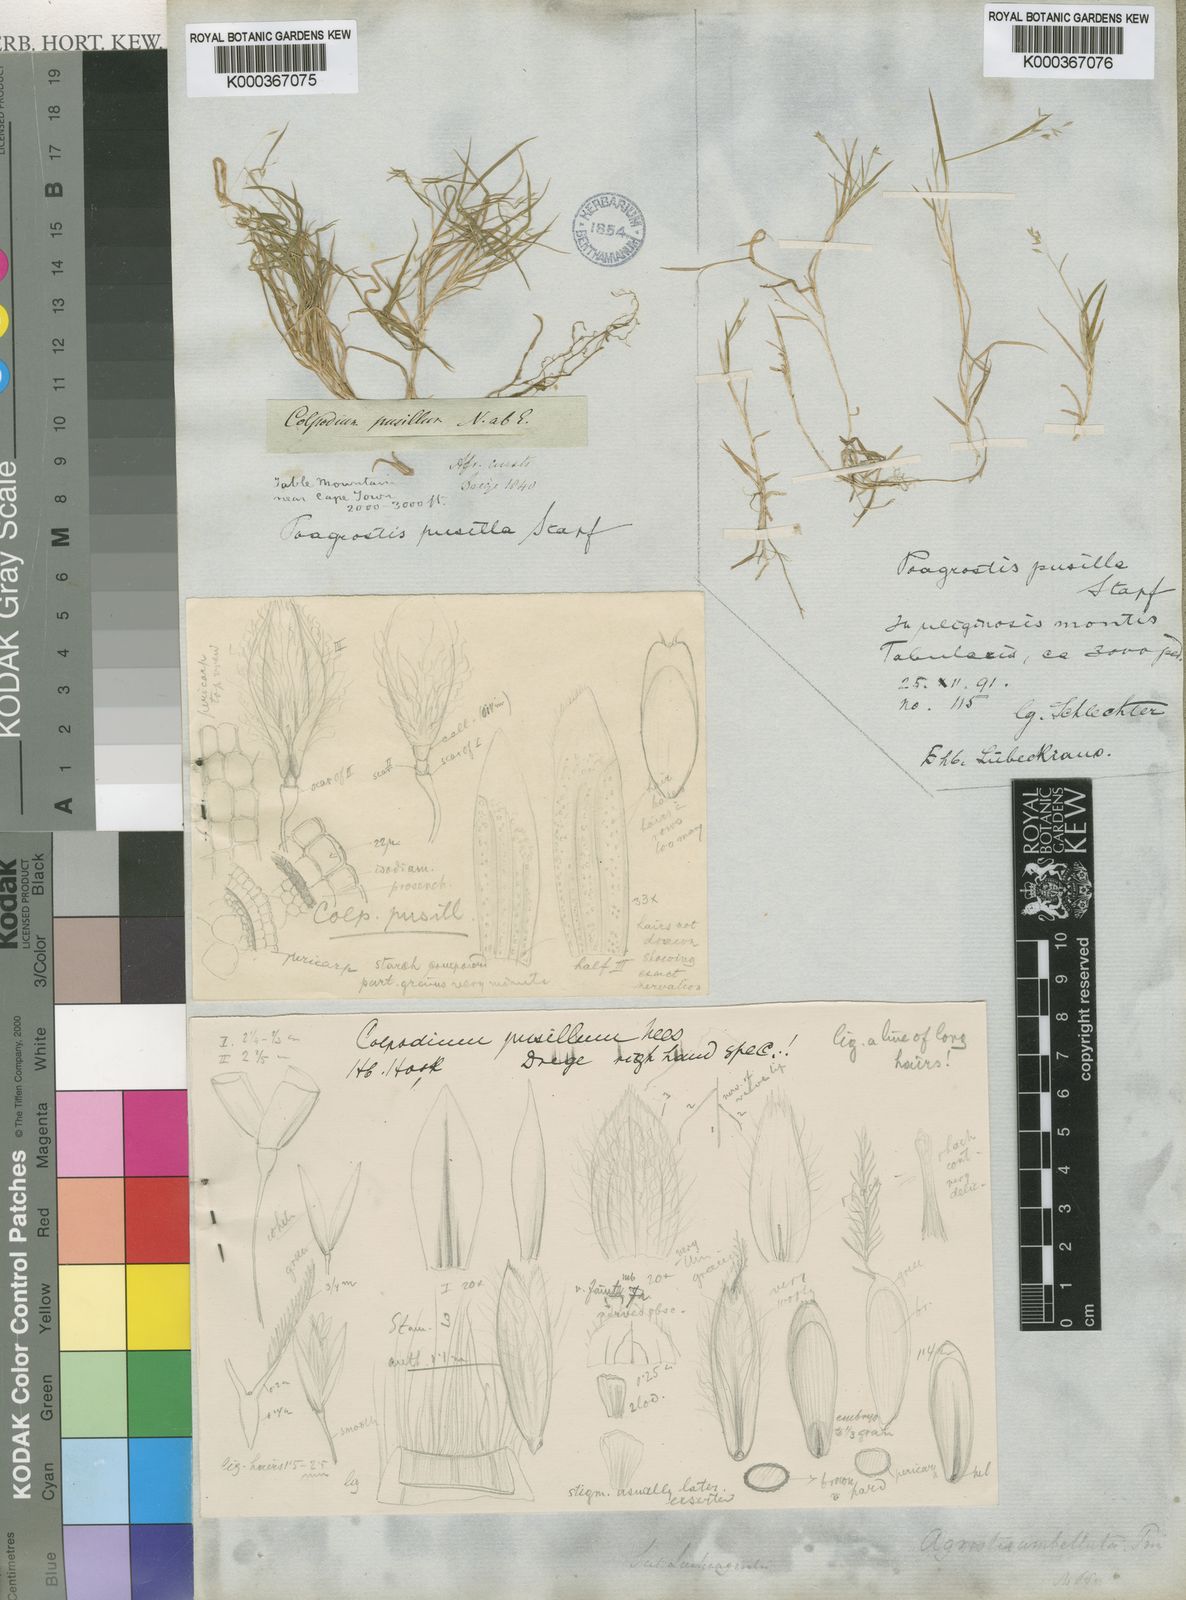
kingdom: Plantae
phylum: Tracheophyta
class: Liliopsida
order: Poales
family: Poaceae
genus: Pentameris
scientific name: Pentameris pusilla
